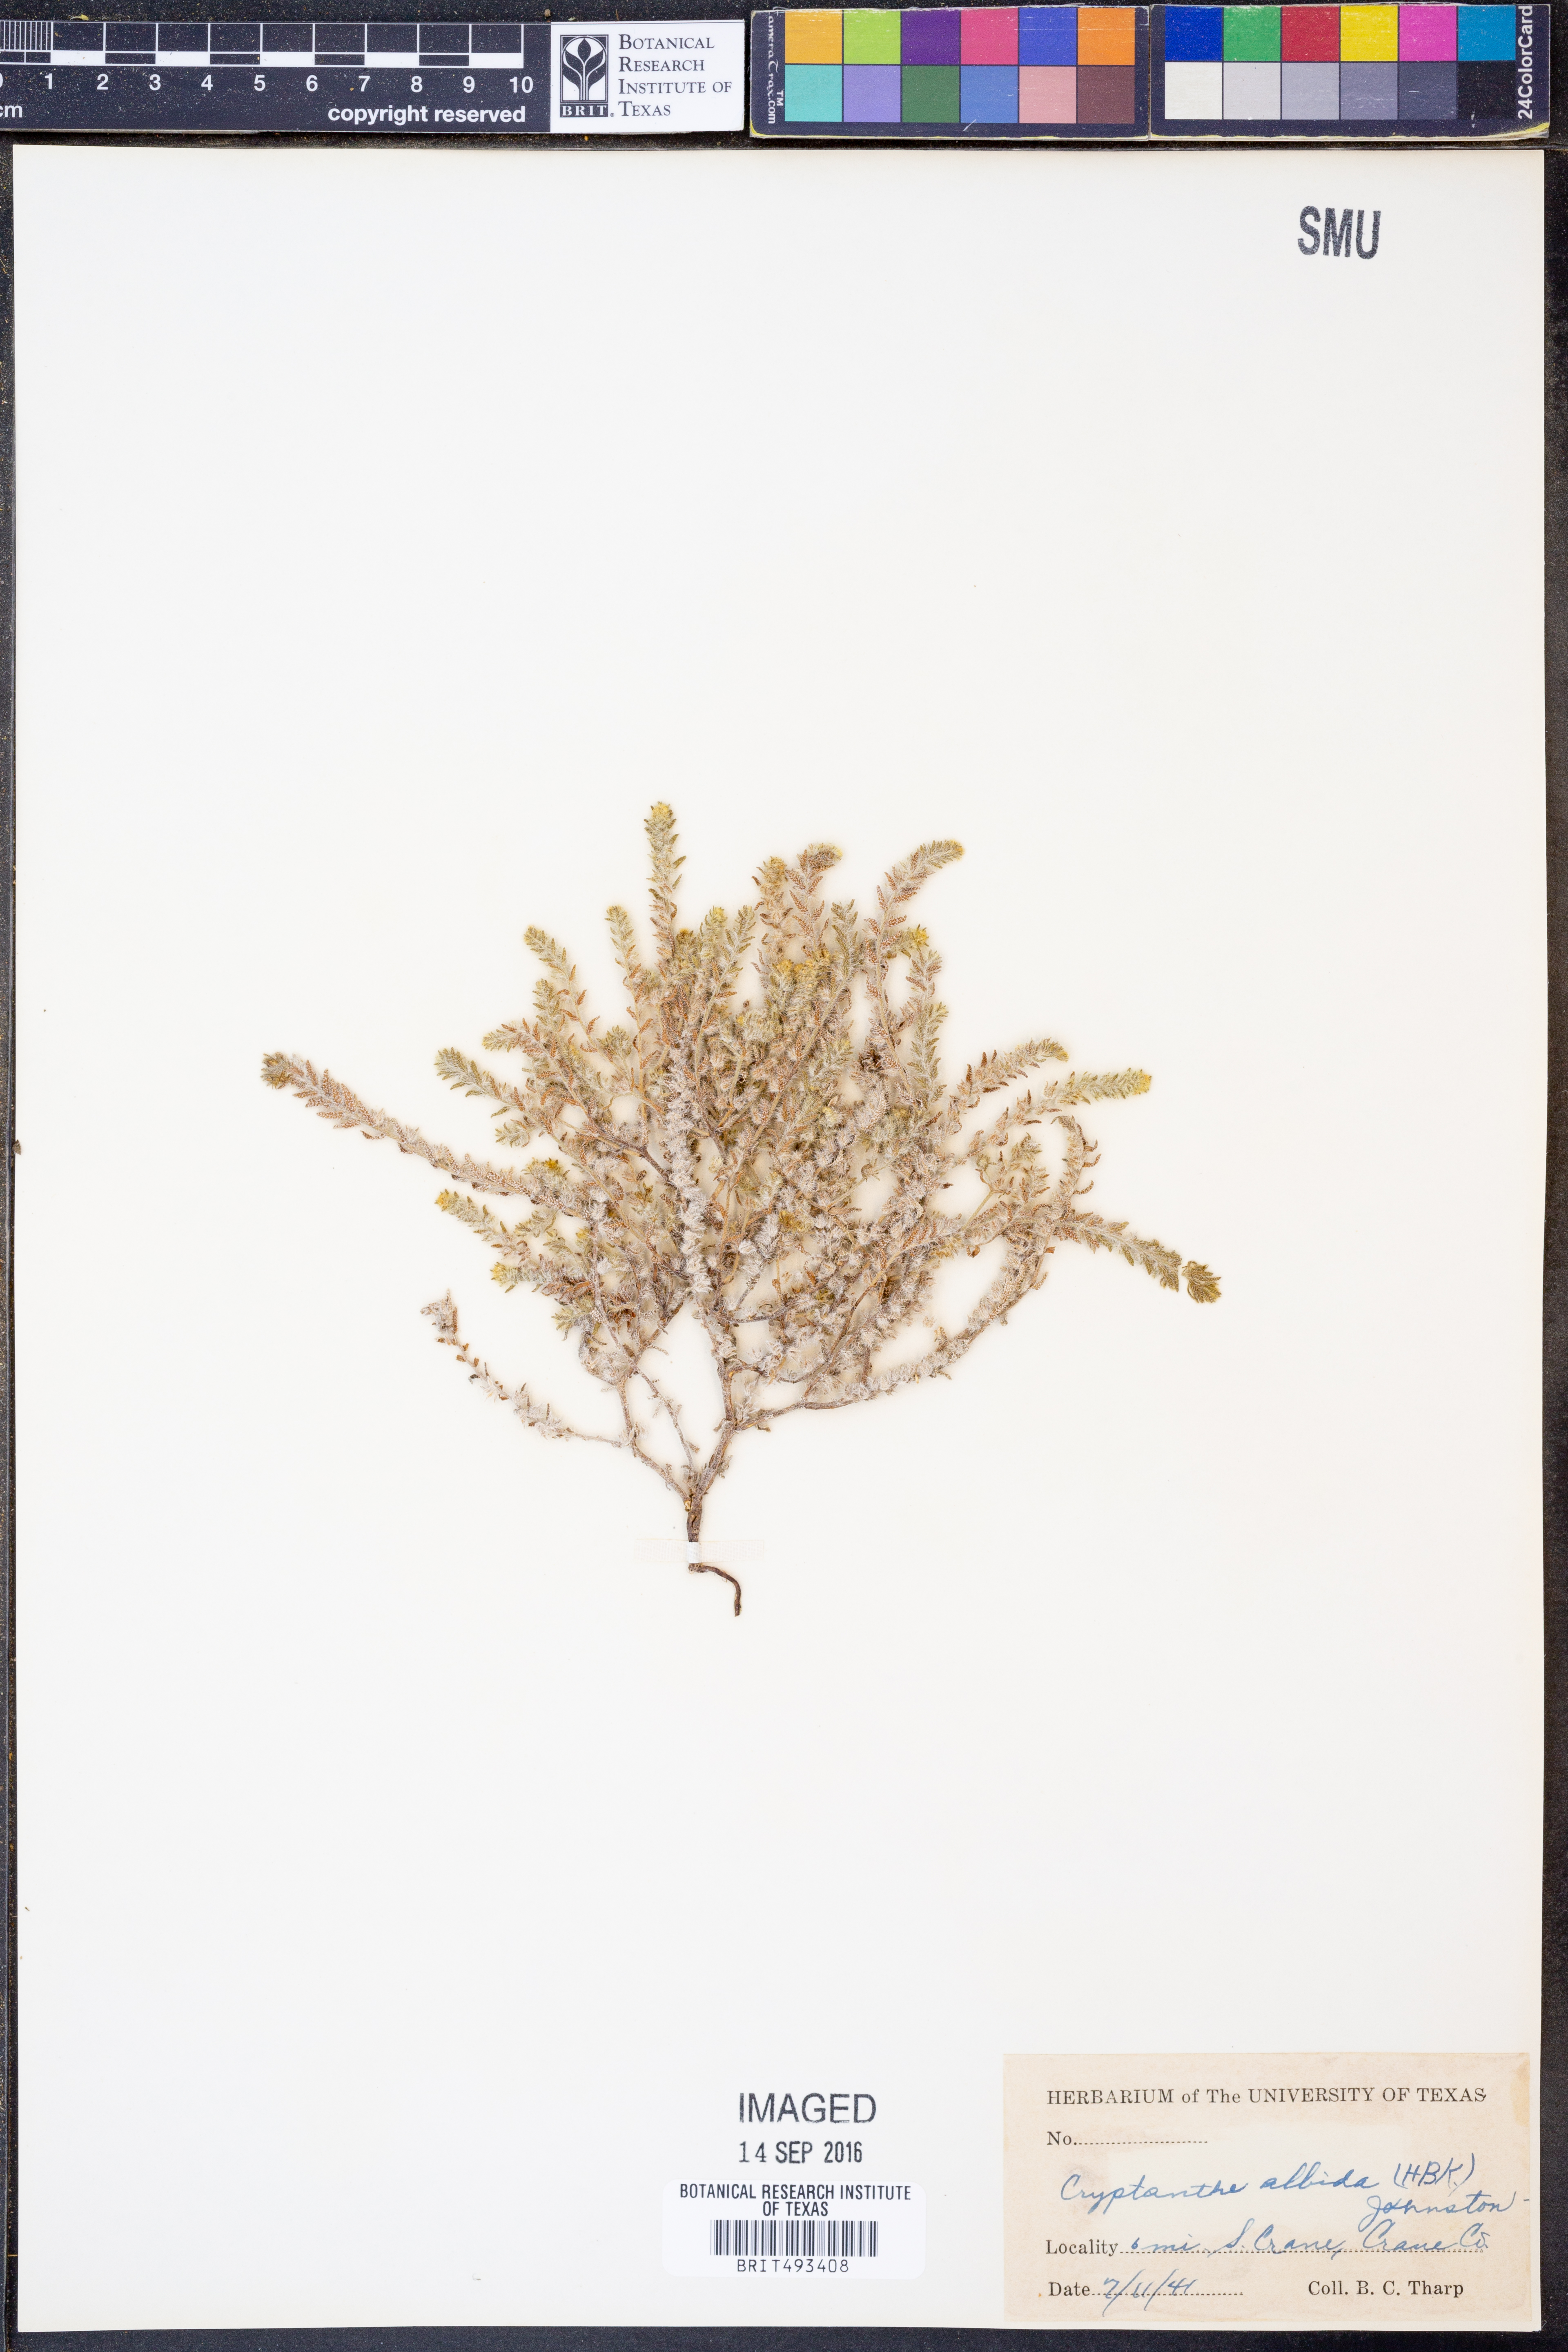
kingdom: Plantae
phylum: Tracheophyta
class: Magnoliopsida
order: Boraginales
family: Boraginaceae
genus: Johnstonella
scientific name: Johnstonella albida
